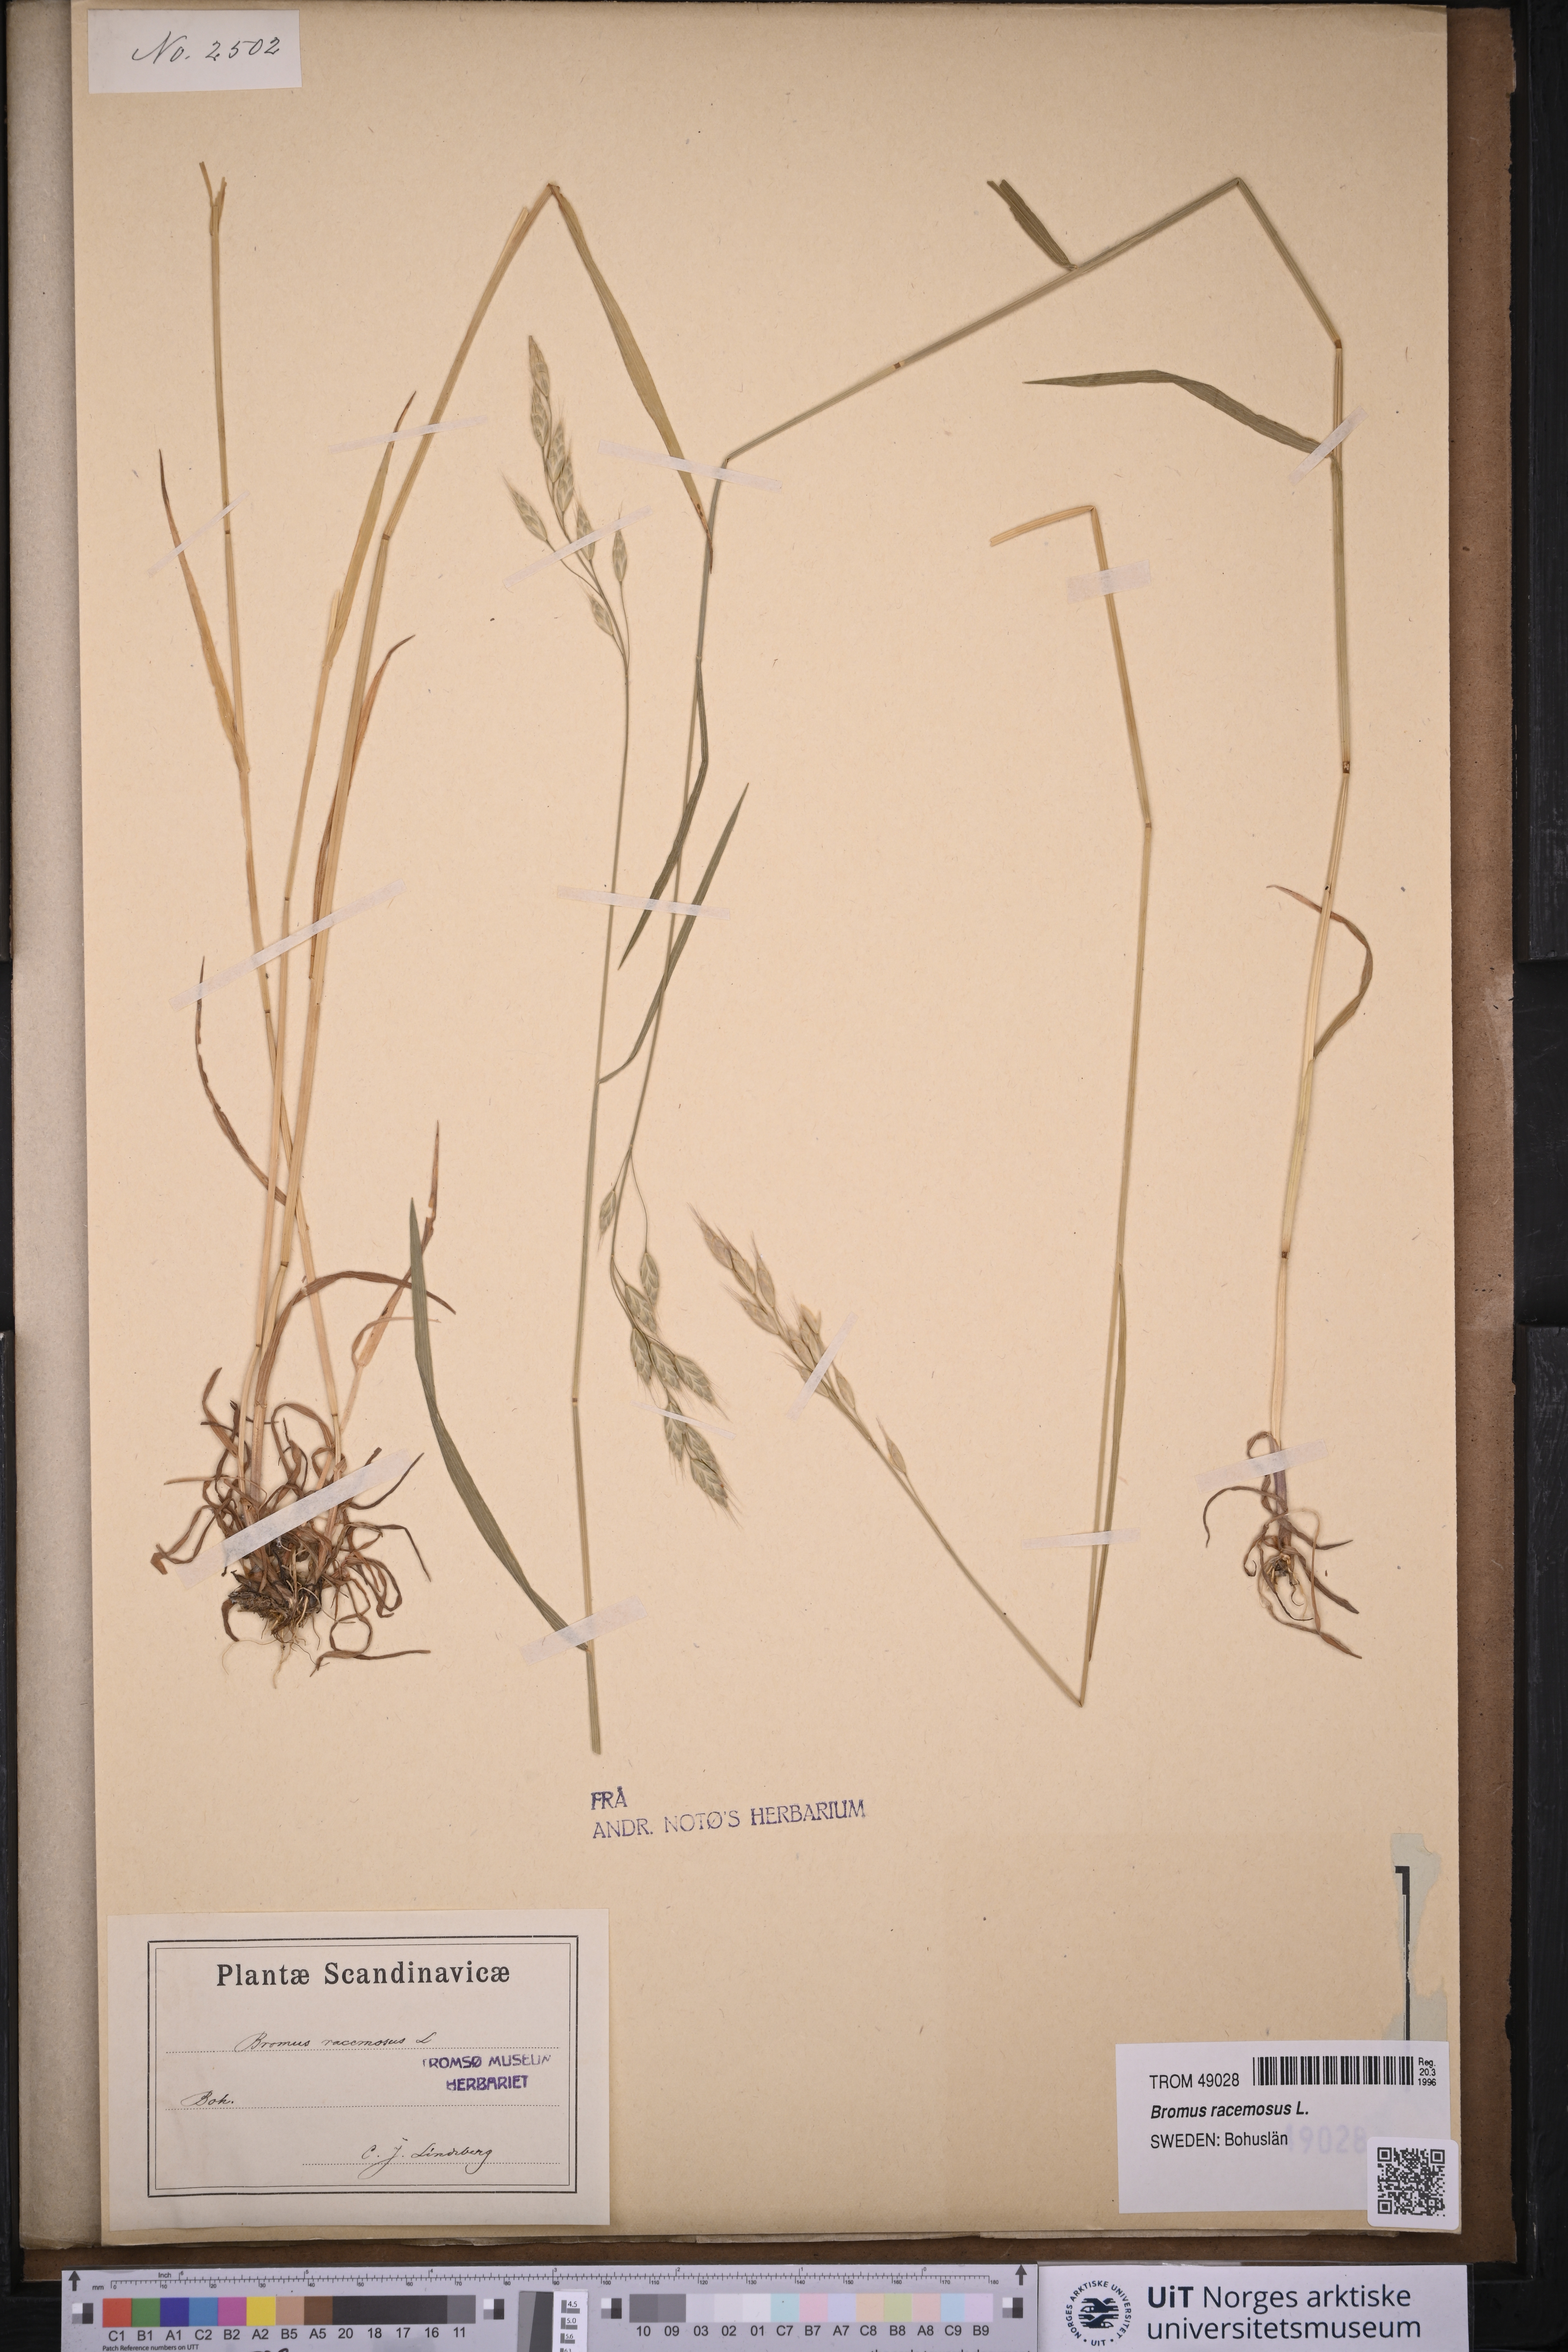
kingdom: Plantae
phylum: Tracheophyta
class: Liliopsida
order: Poales
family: Poaceae
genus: Bromus
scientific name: Bromus racemosus
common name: Bald brome
